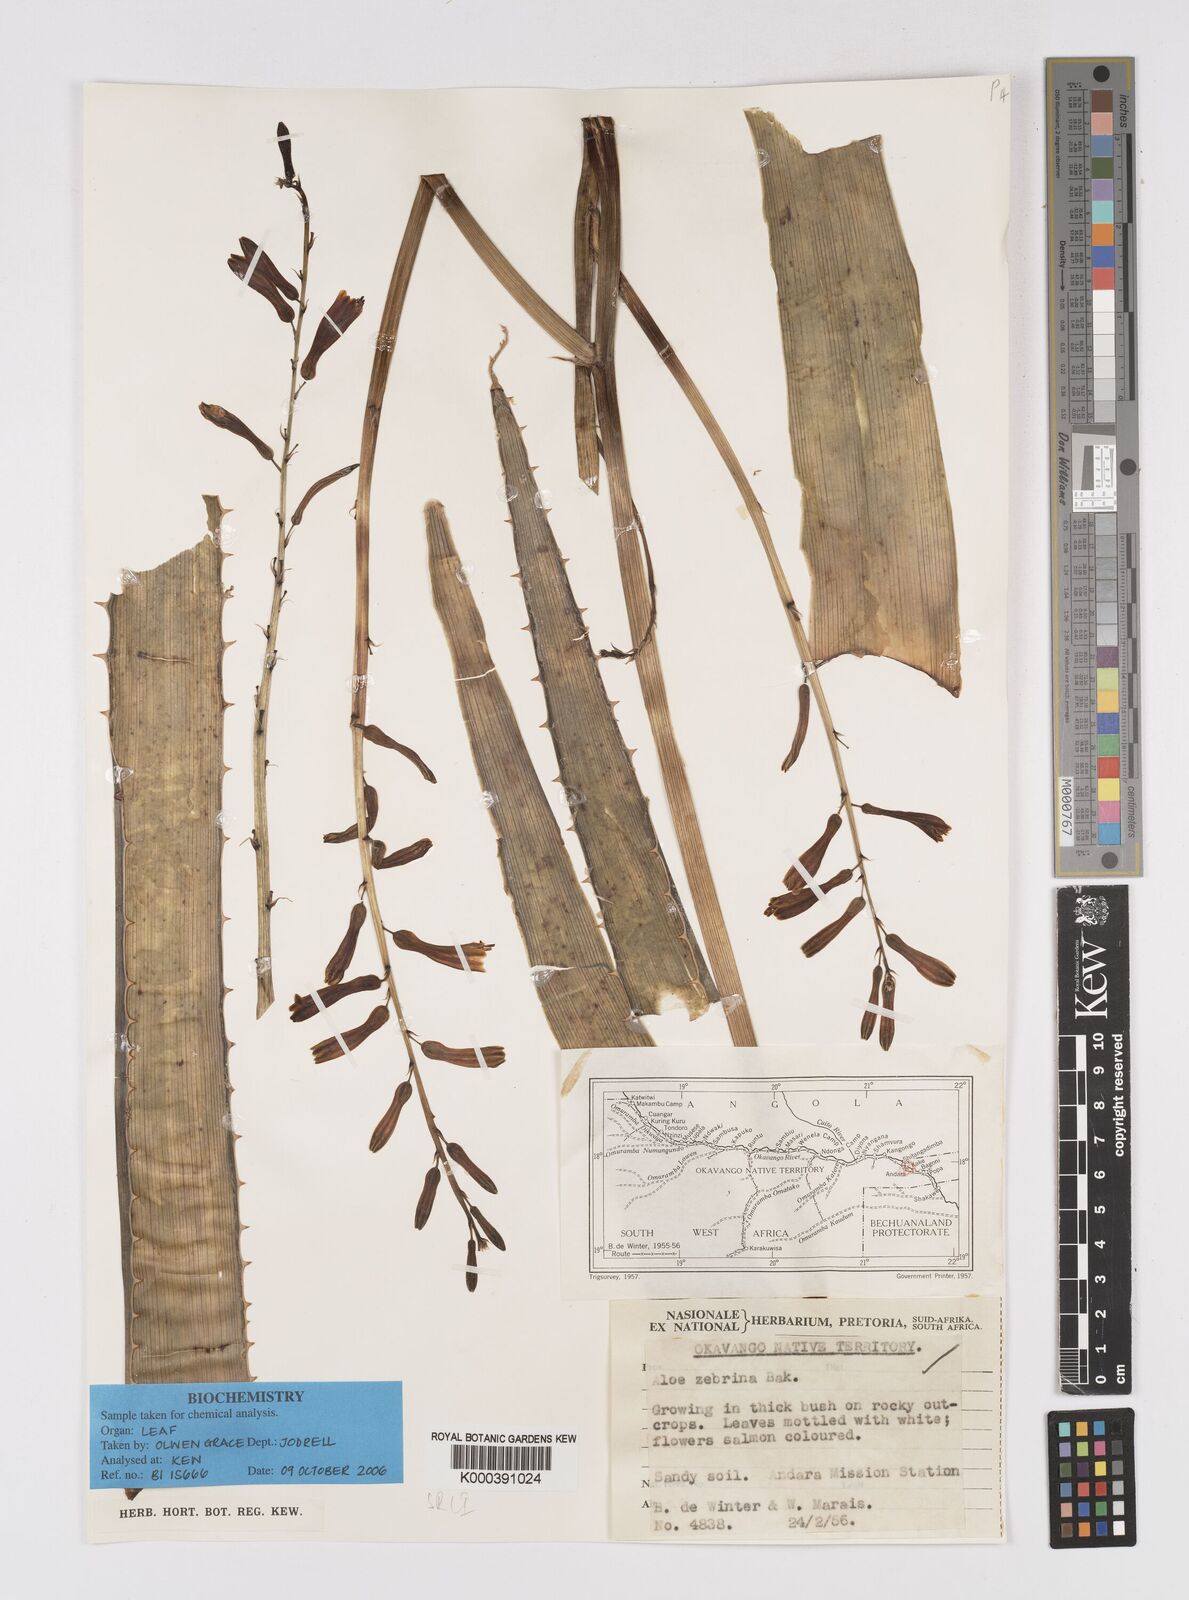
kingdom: Plantae
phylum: Tracheophyta
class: Liliopsida
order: Asparagales
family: Asphodelaceae
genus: Aloe
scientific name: Aloe zebrina
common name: Zebra-leaf aloe
